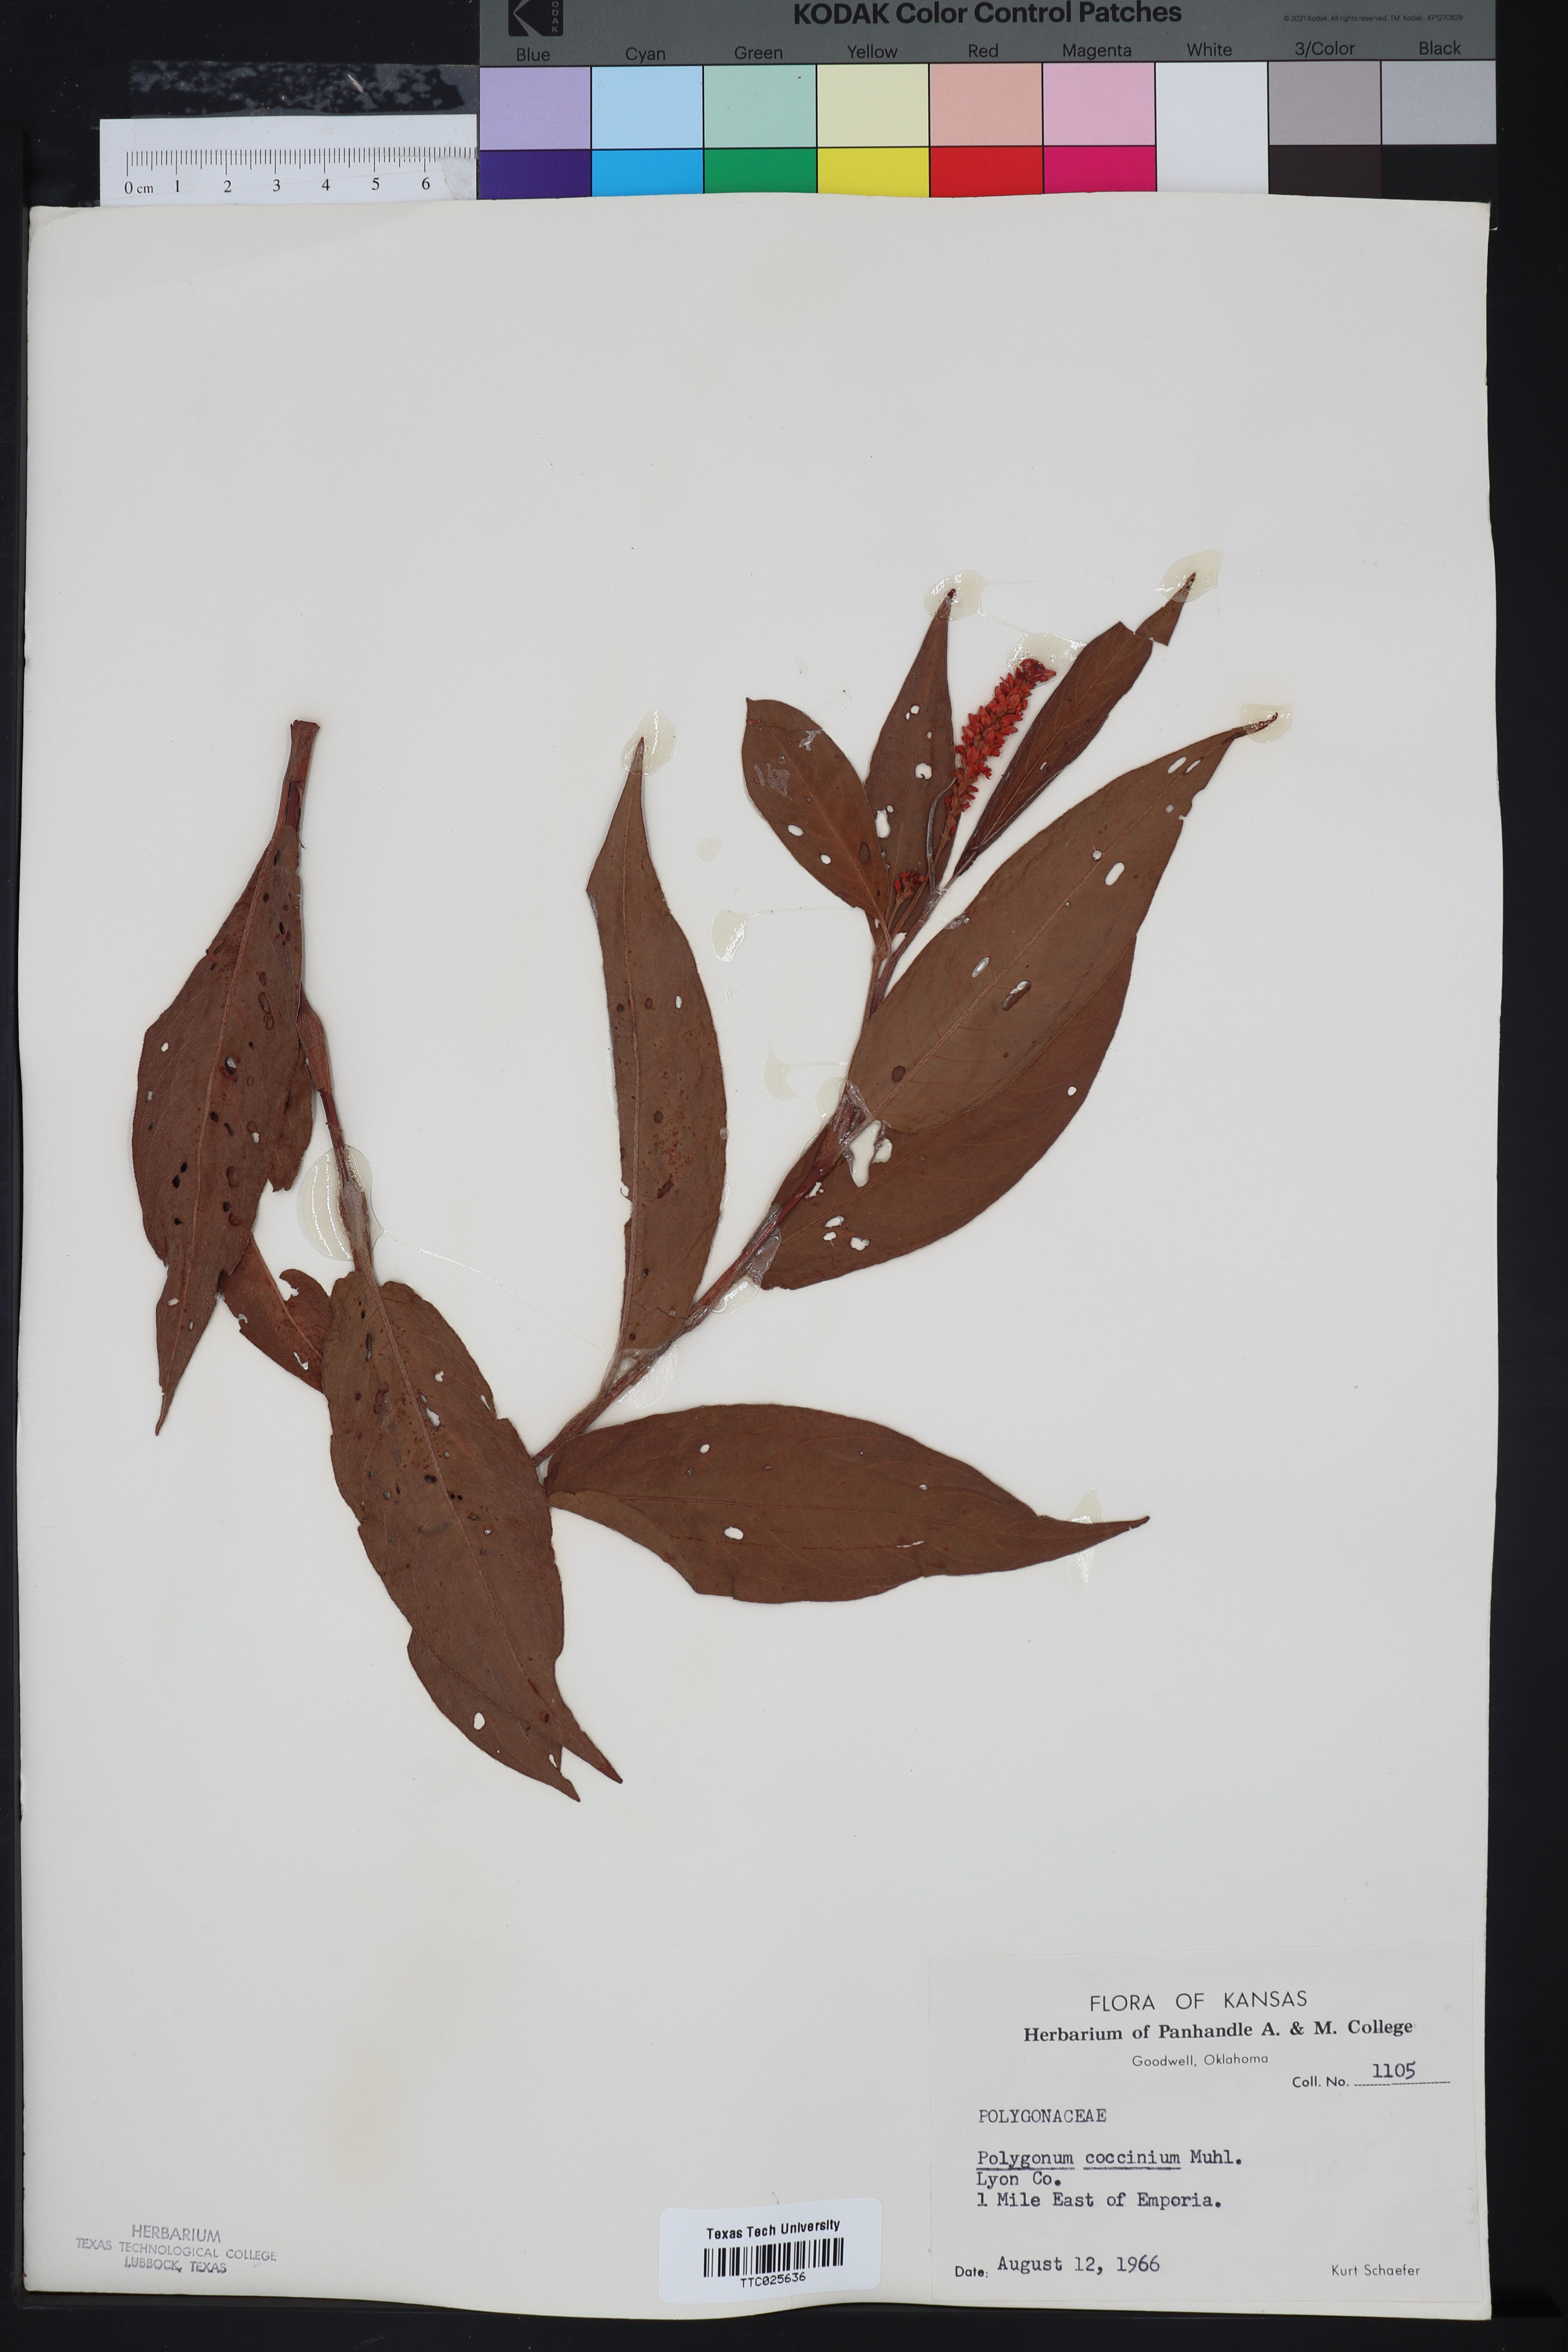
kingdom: Plantae
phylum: Tracheophyta
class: Magnoliopsida
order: Caryophyllales
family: Polygonaceae
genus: Persicaria
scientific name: Persicaria amphibia
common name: Amphibious bistort
